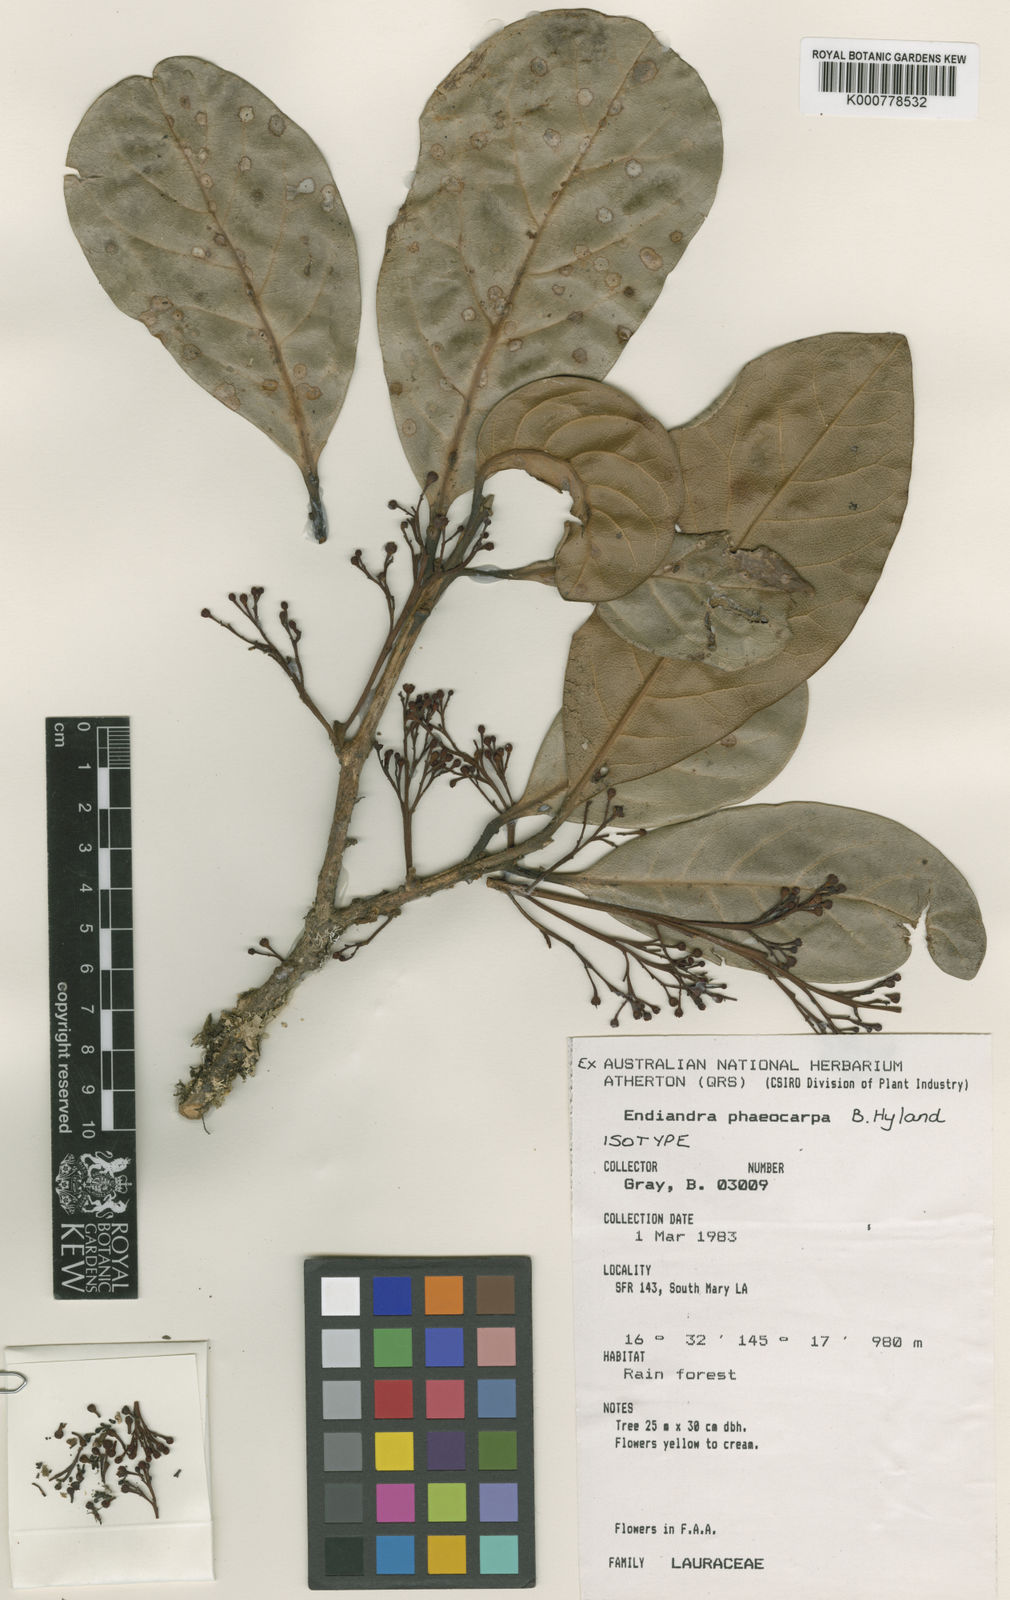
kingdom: Plantae
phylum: Tracheophyta
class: Magnoliopsida
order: Laurales
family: Lauraceae
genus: Endiandra
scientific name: Endiandra phaeocarpa
